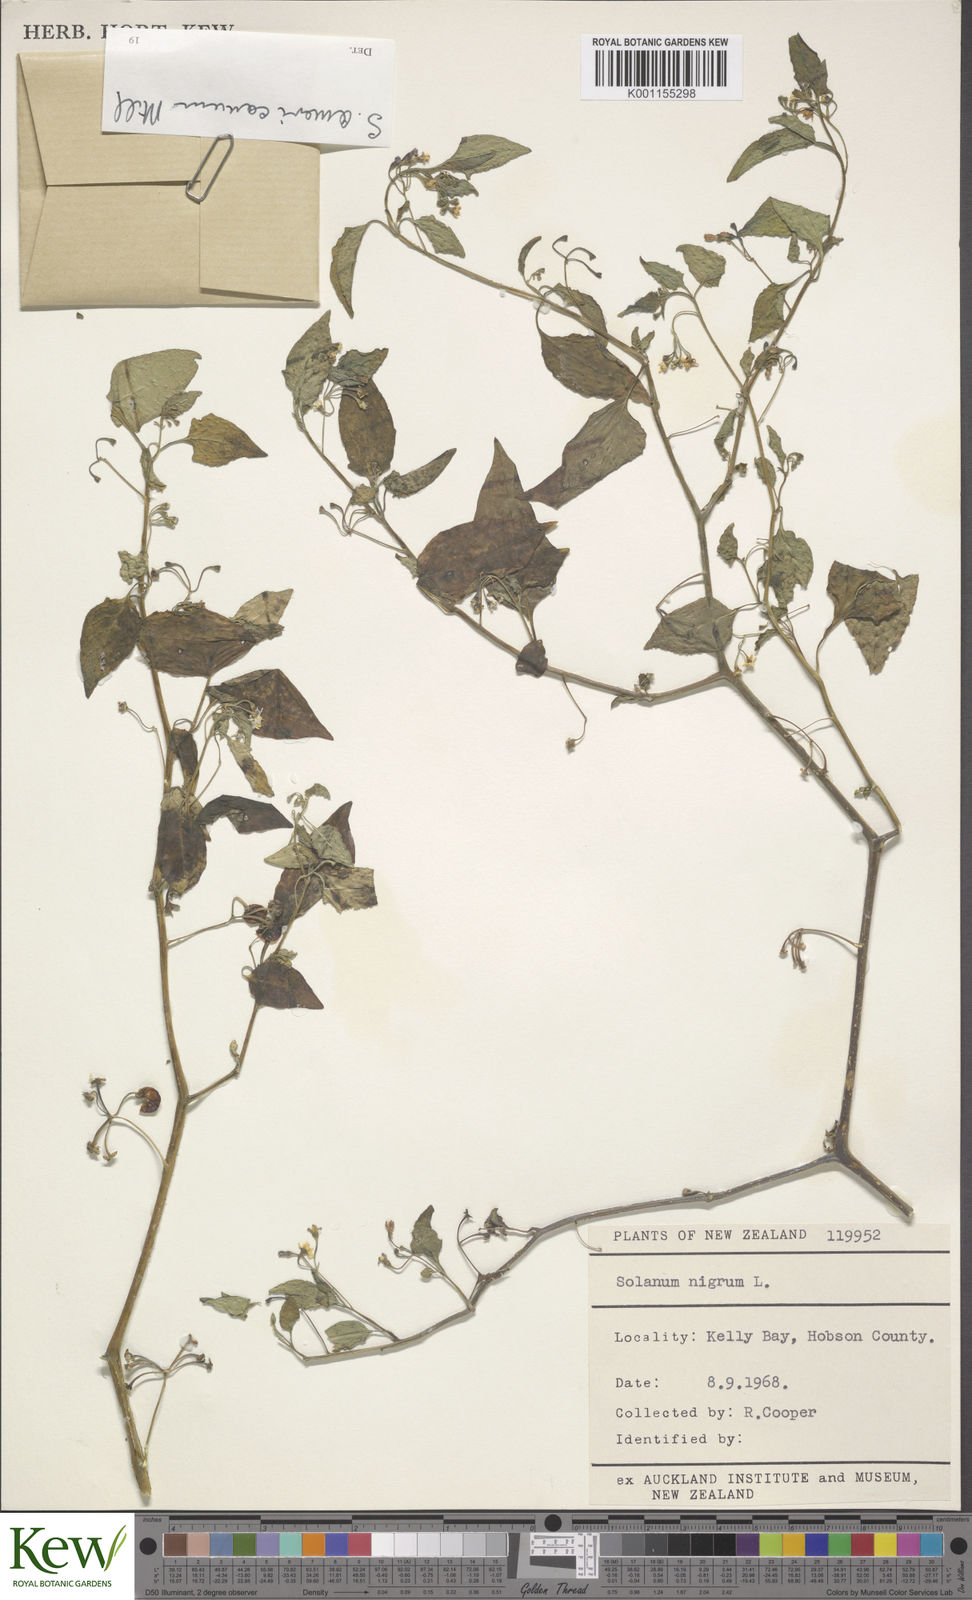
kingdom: Plantae
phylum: Tracheophyta
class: Magnoliopsida
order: Solanales
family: Solanaceae
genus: Solanum
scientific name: Solanum americanum
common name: American black nightshade
